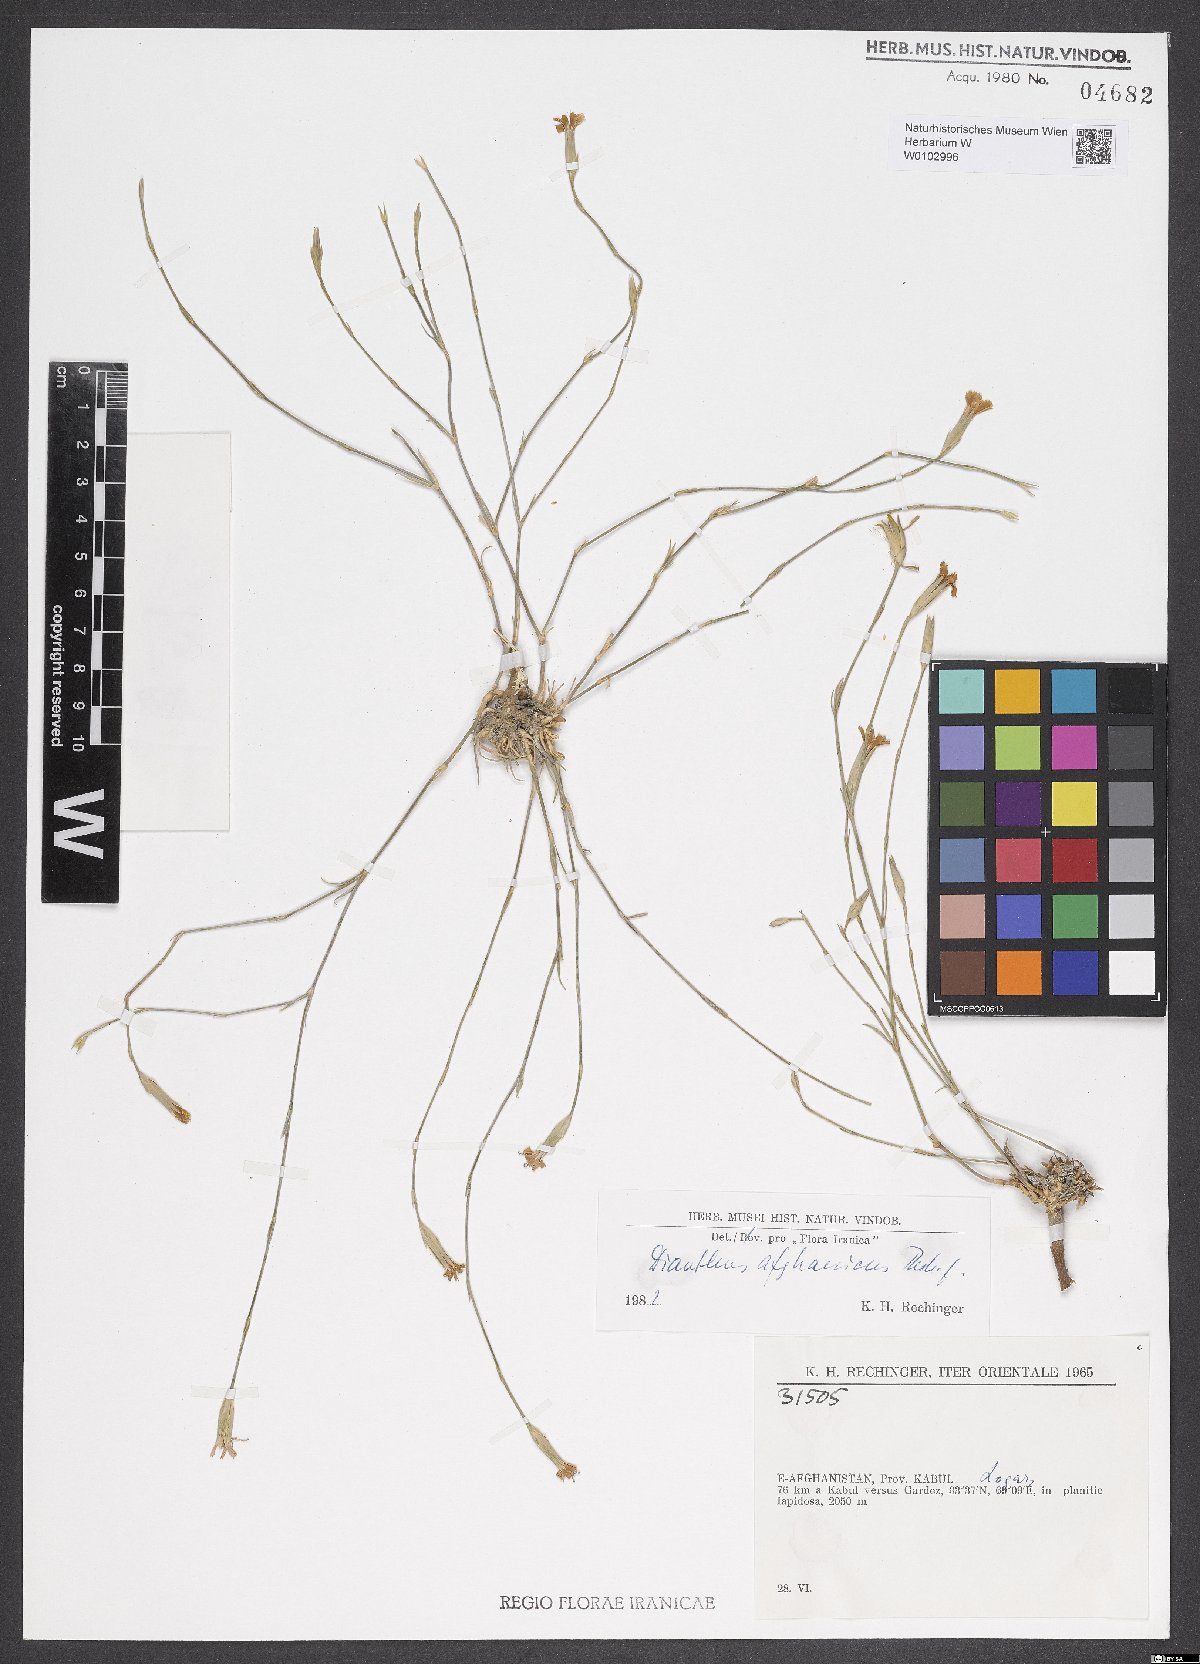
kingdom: Plantae
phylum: Tracheophyta
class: Magnoliopsida
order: Caryophyllales
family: Caryophyllaceae
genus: Dianthus
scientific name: Dianthus afghanicus
